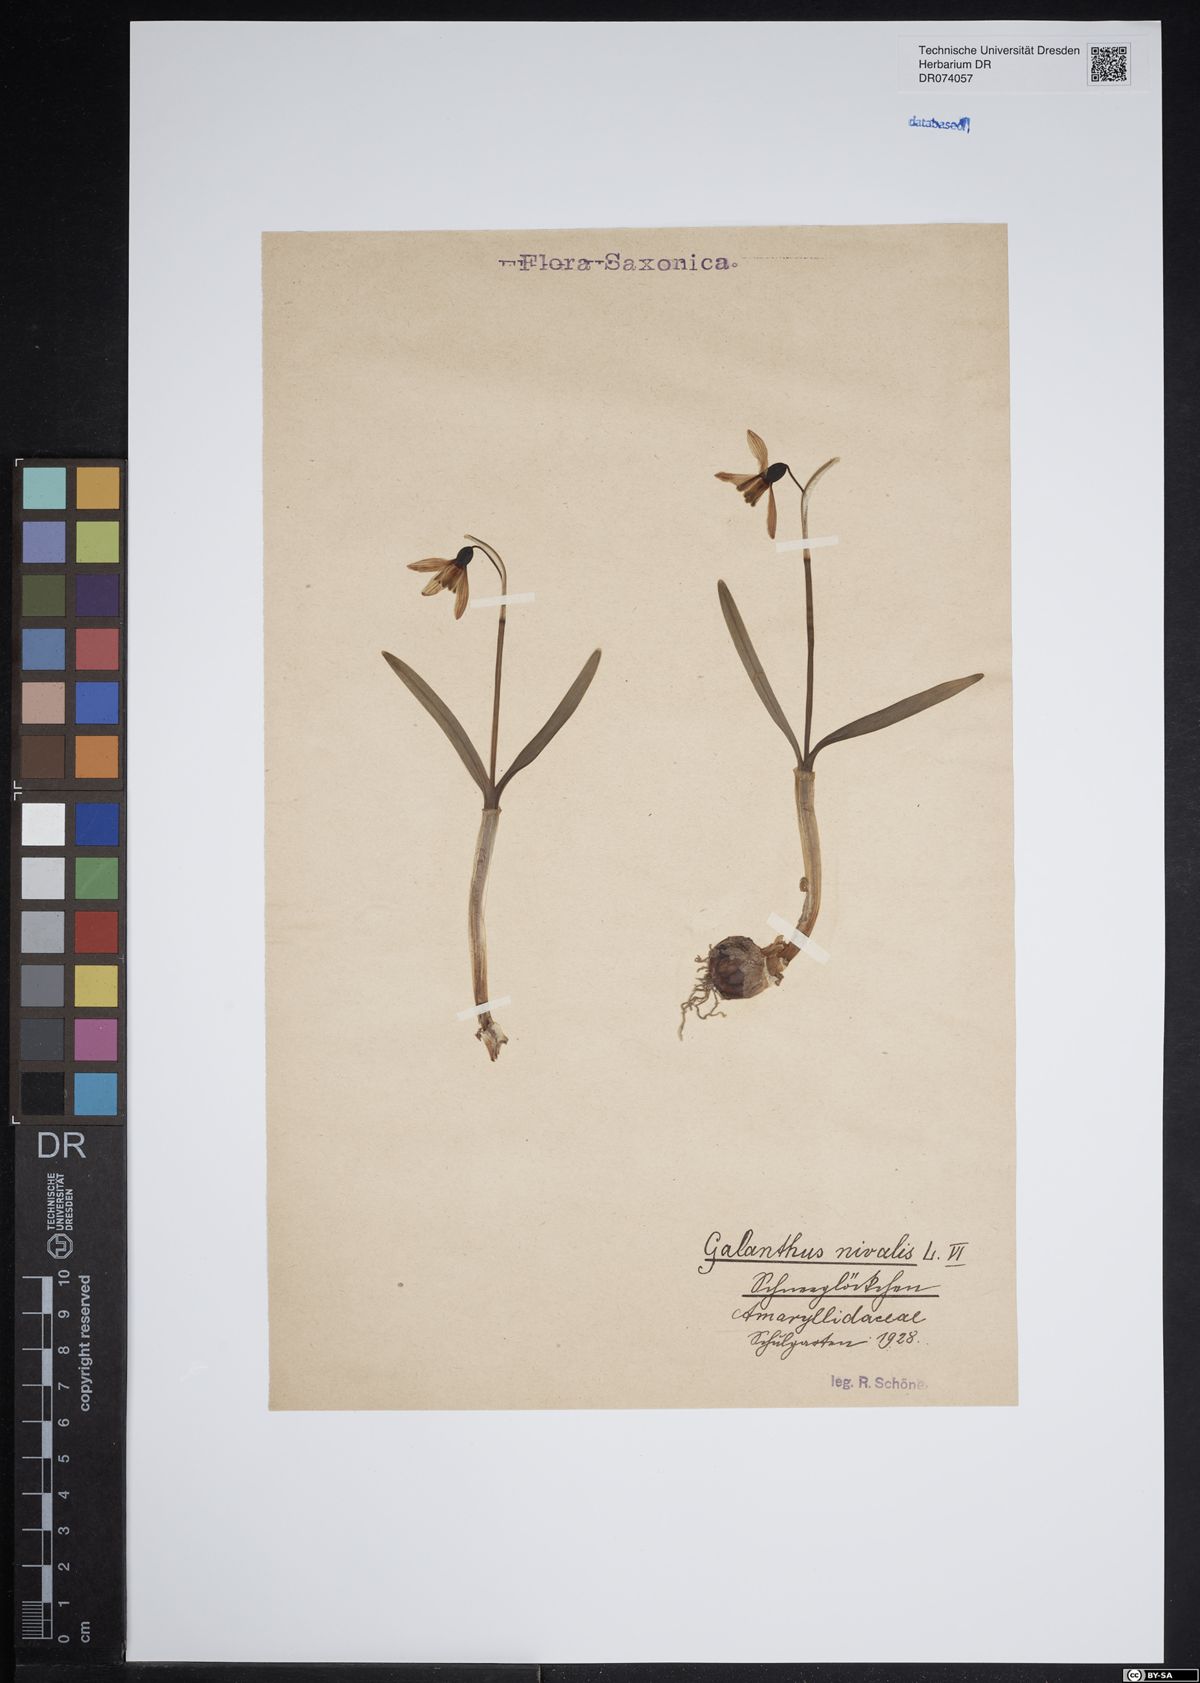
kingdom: Plantae
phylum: Tracheophyta
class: Liliopsida
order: Asparagales
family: Amaryllidaceae
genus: Galanthus
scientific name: Galanthus nivalis
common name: Snowdrop
